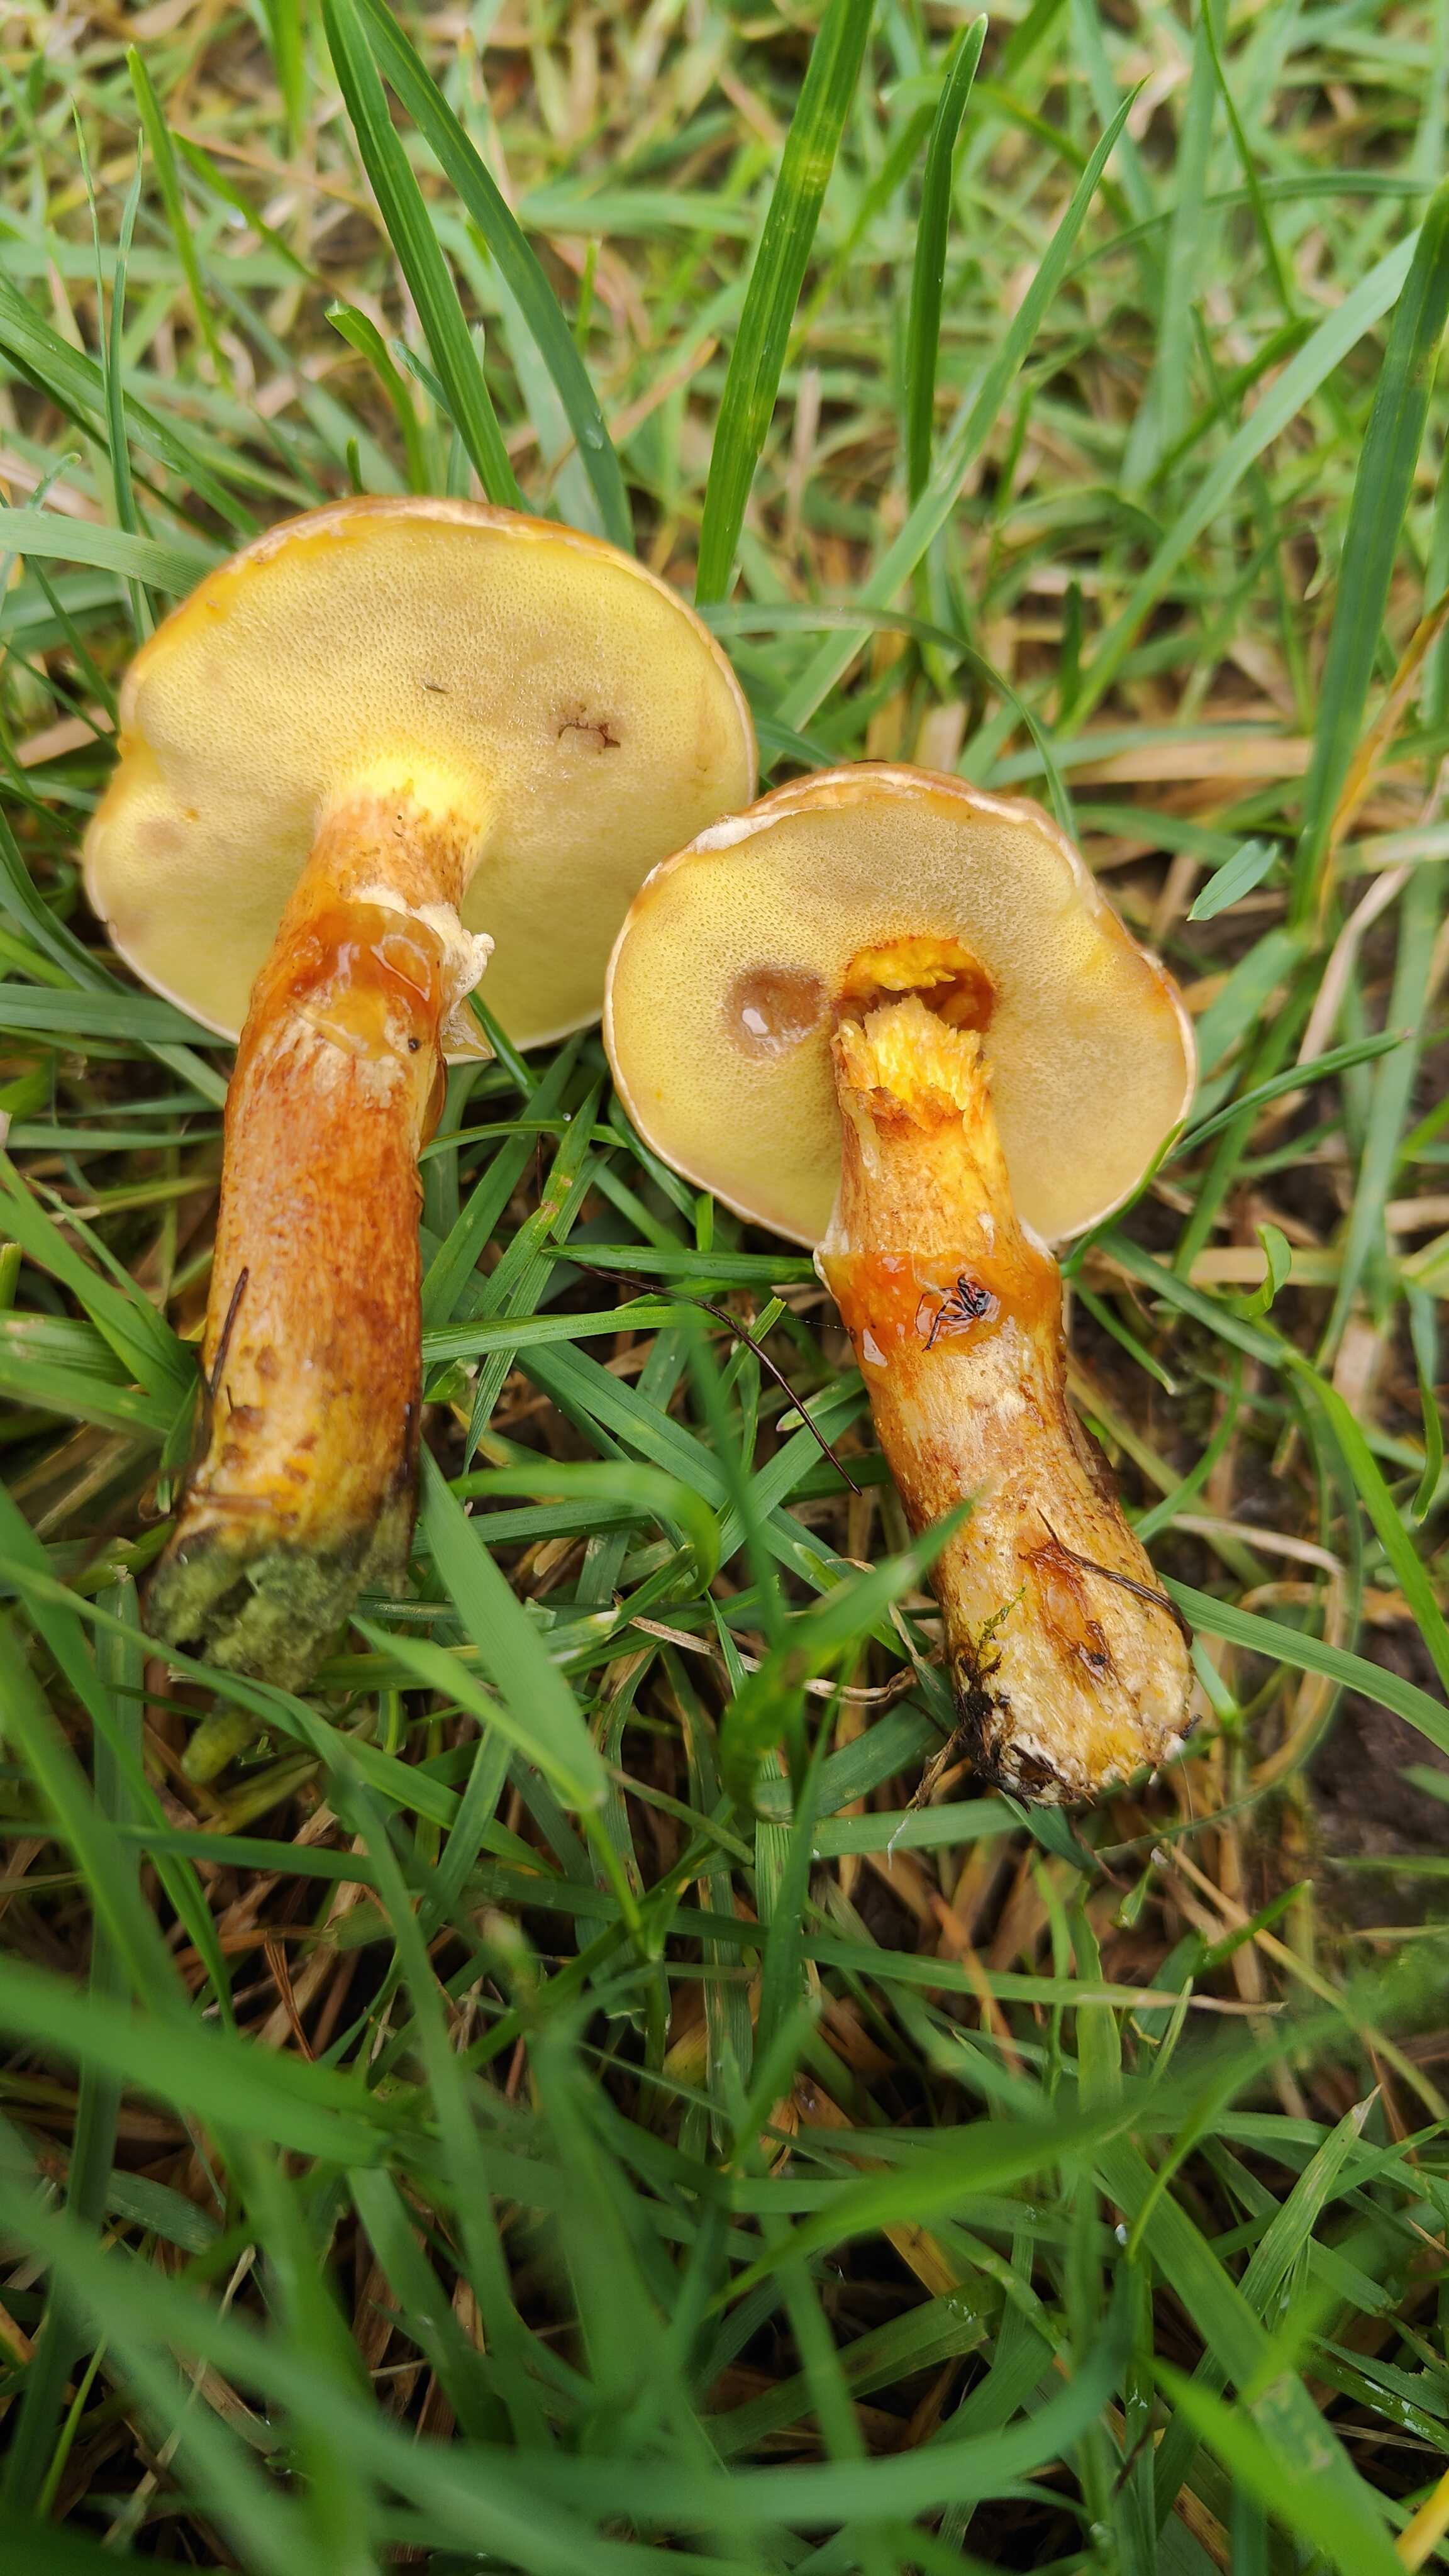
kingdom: Fungi
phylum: Basidiomycota
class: Agaricomycetes
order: Boletales
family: Suillaceae
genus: Suillus
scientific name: Suillus grevillei
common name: lærke-slimrørhat
